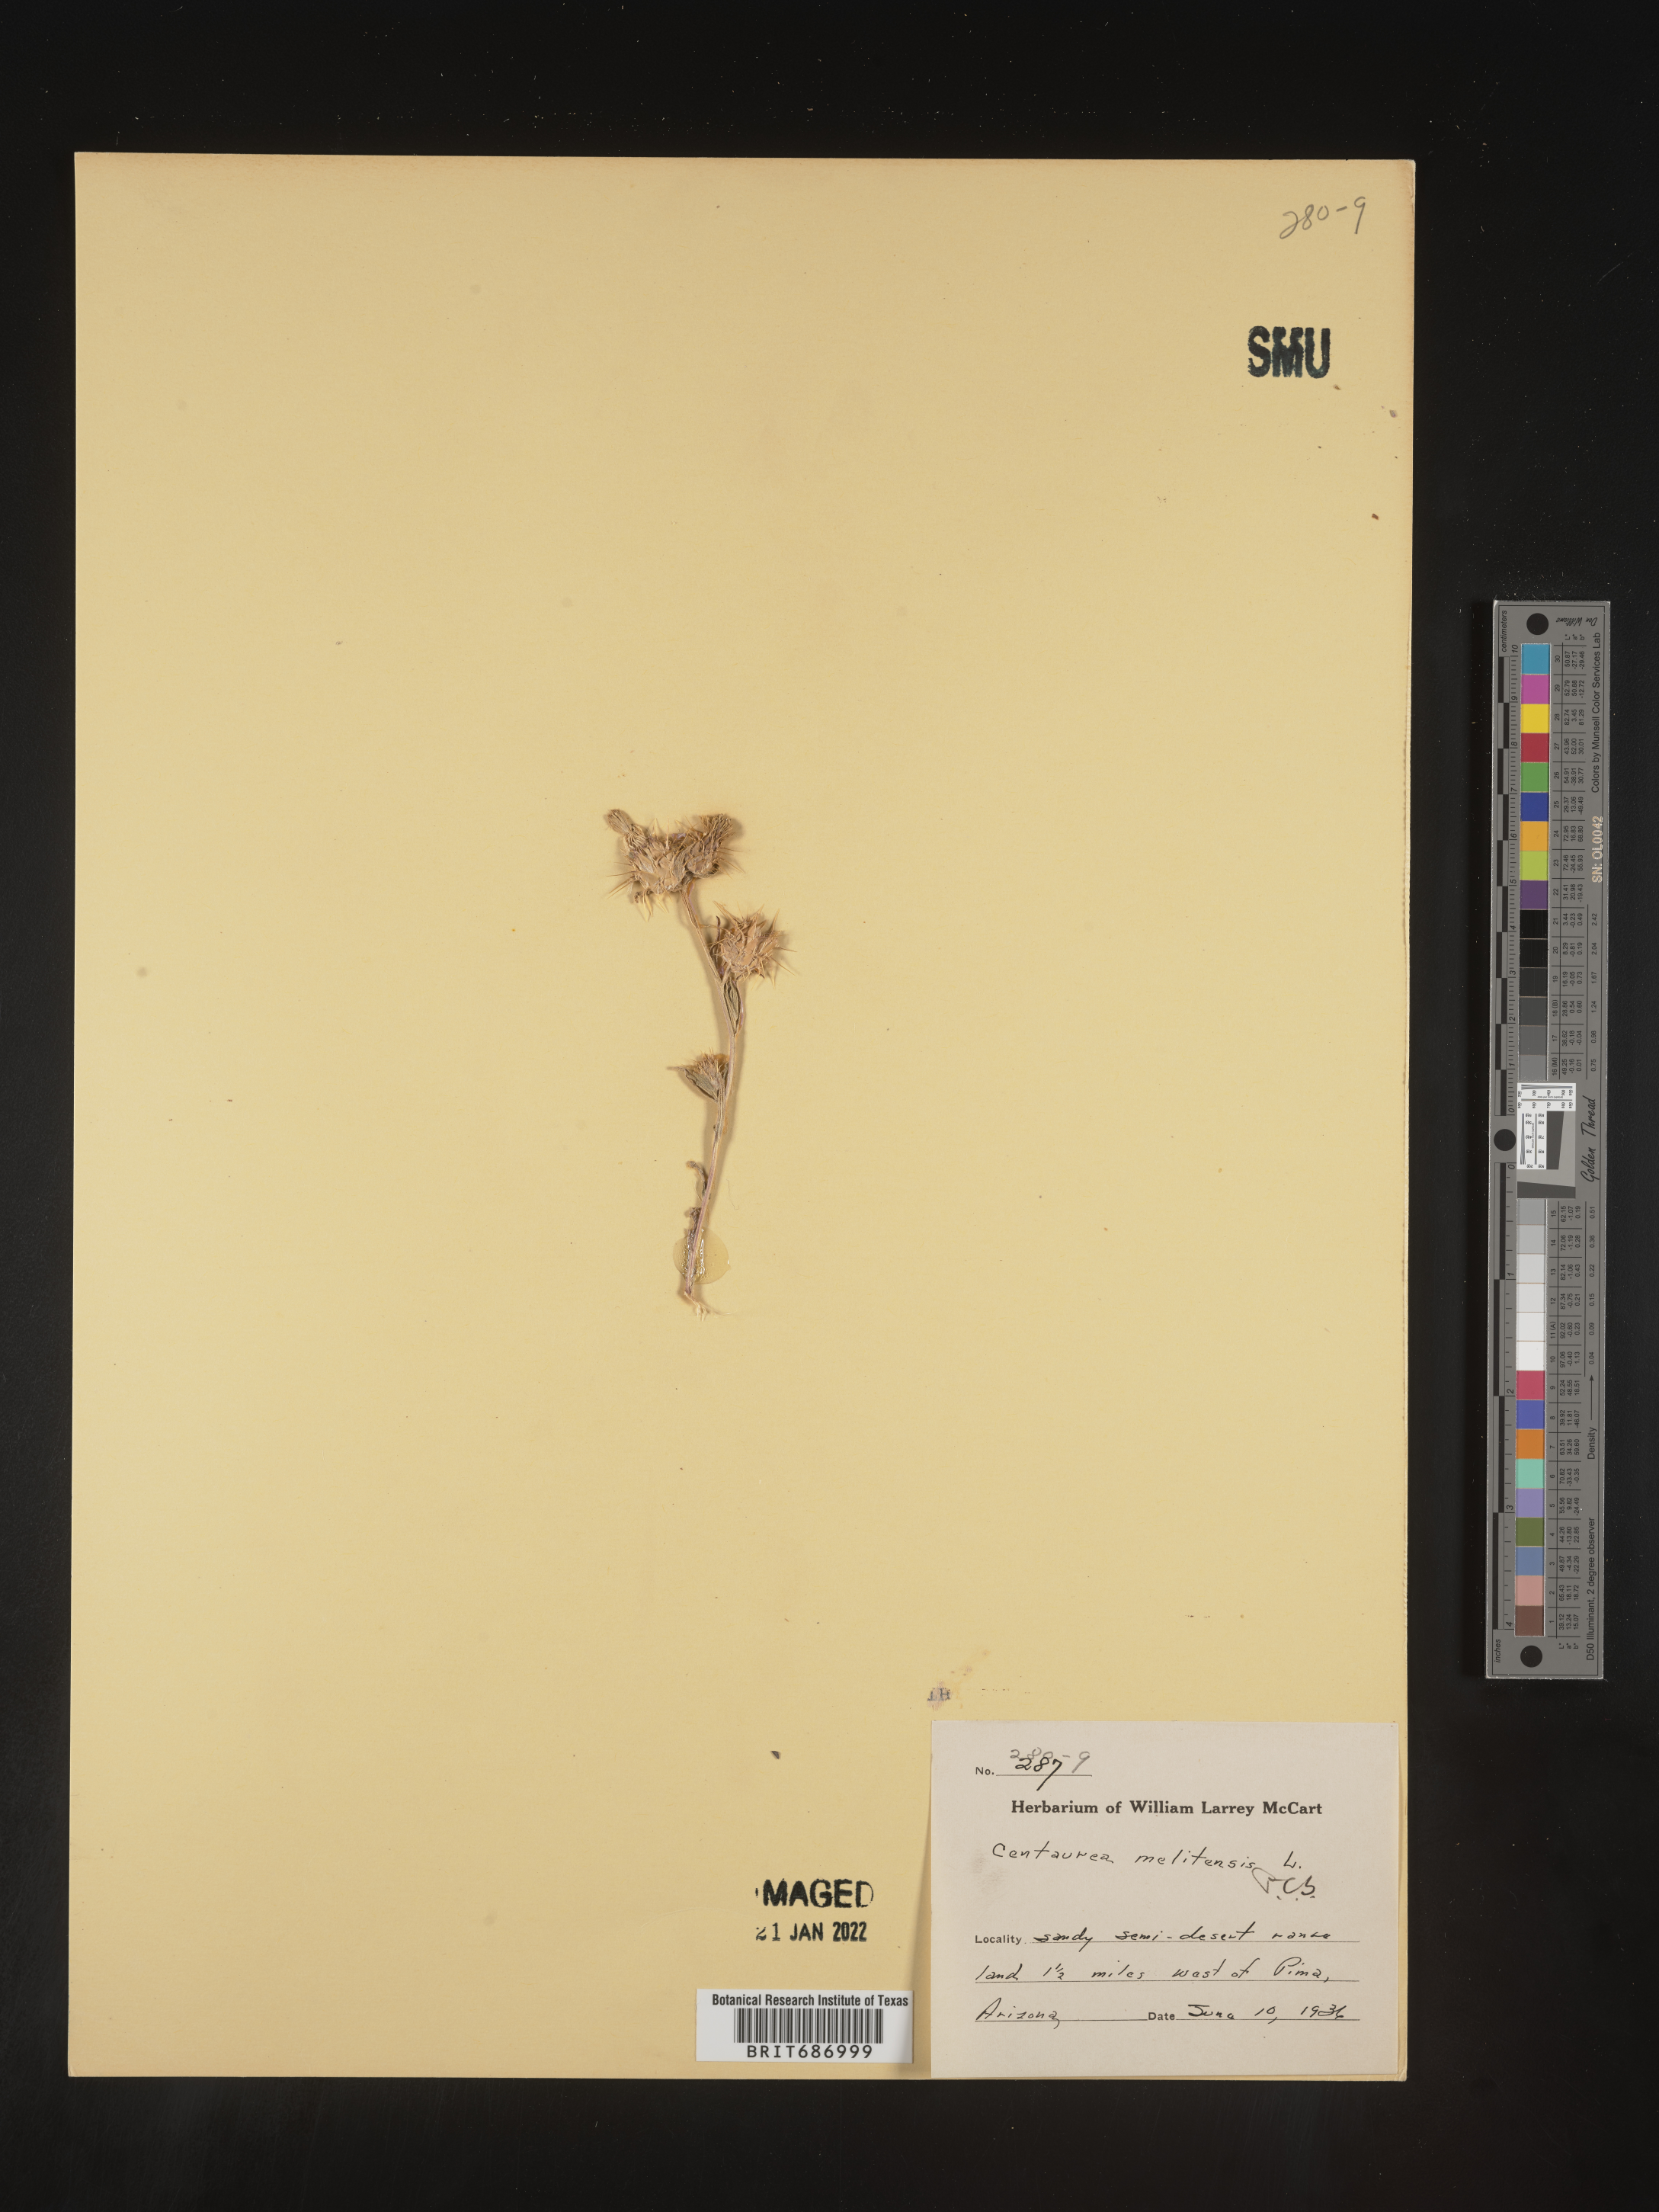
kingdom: Plantae
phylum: Tracheophyta
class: Magnoliopsida
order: Asterales
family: Asteraceae
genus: Centaurea
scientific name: Centaurea melitensis
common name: Maltese star-thistle
